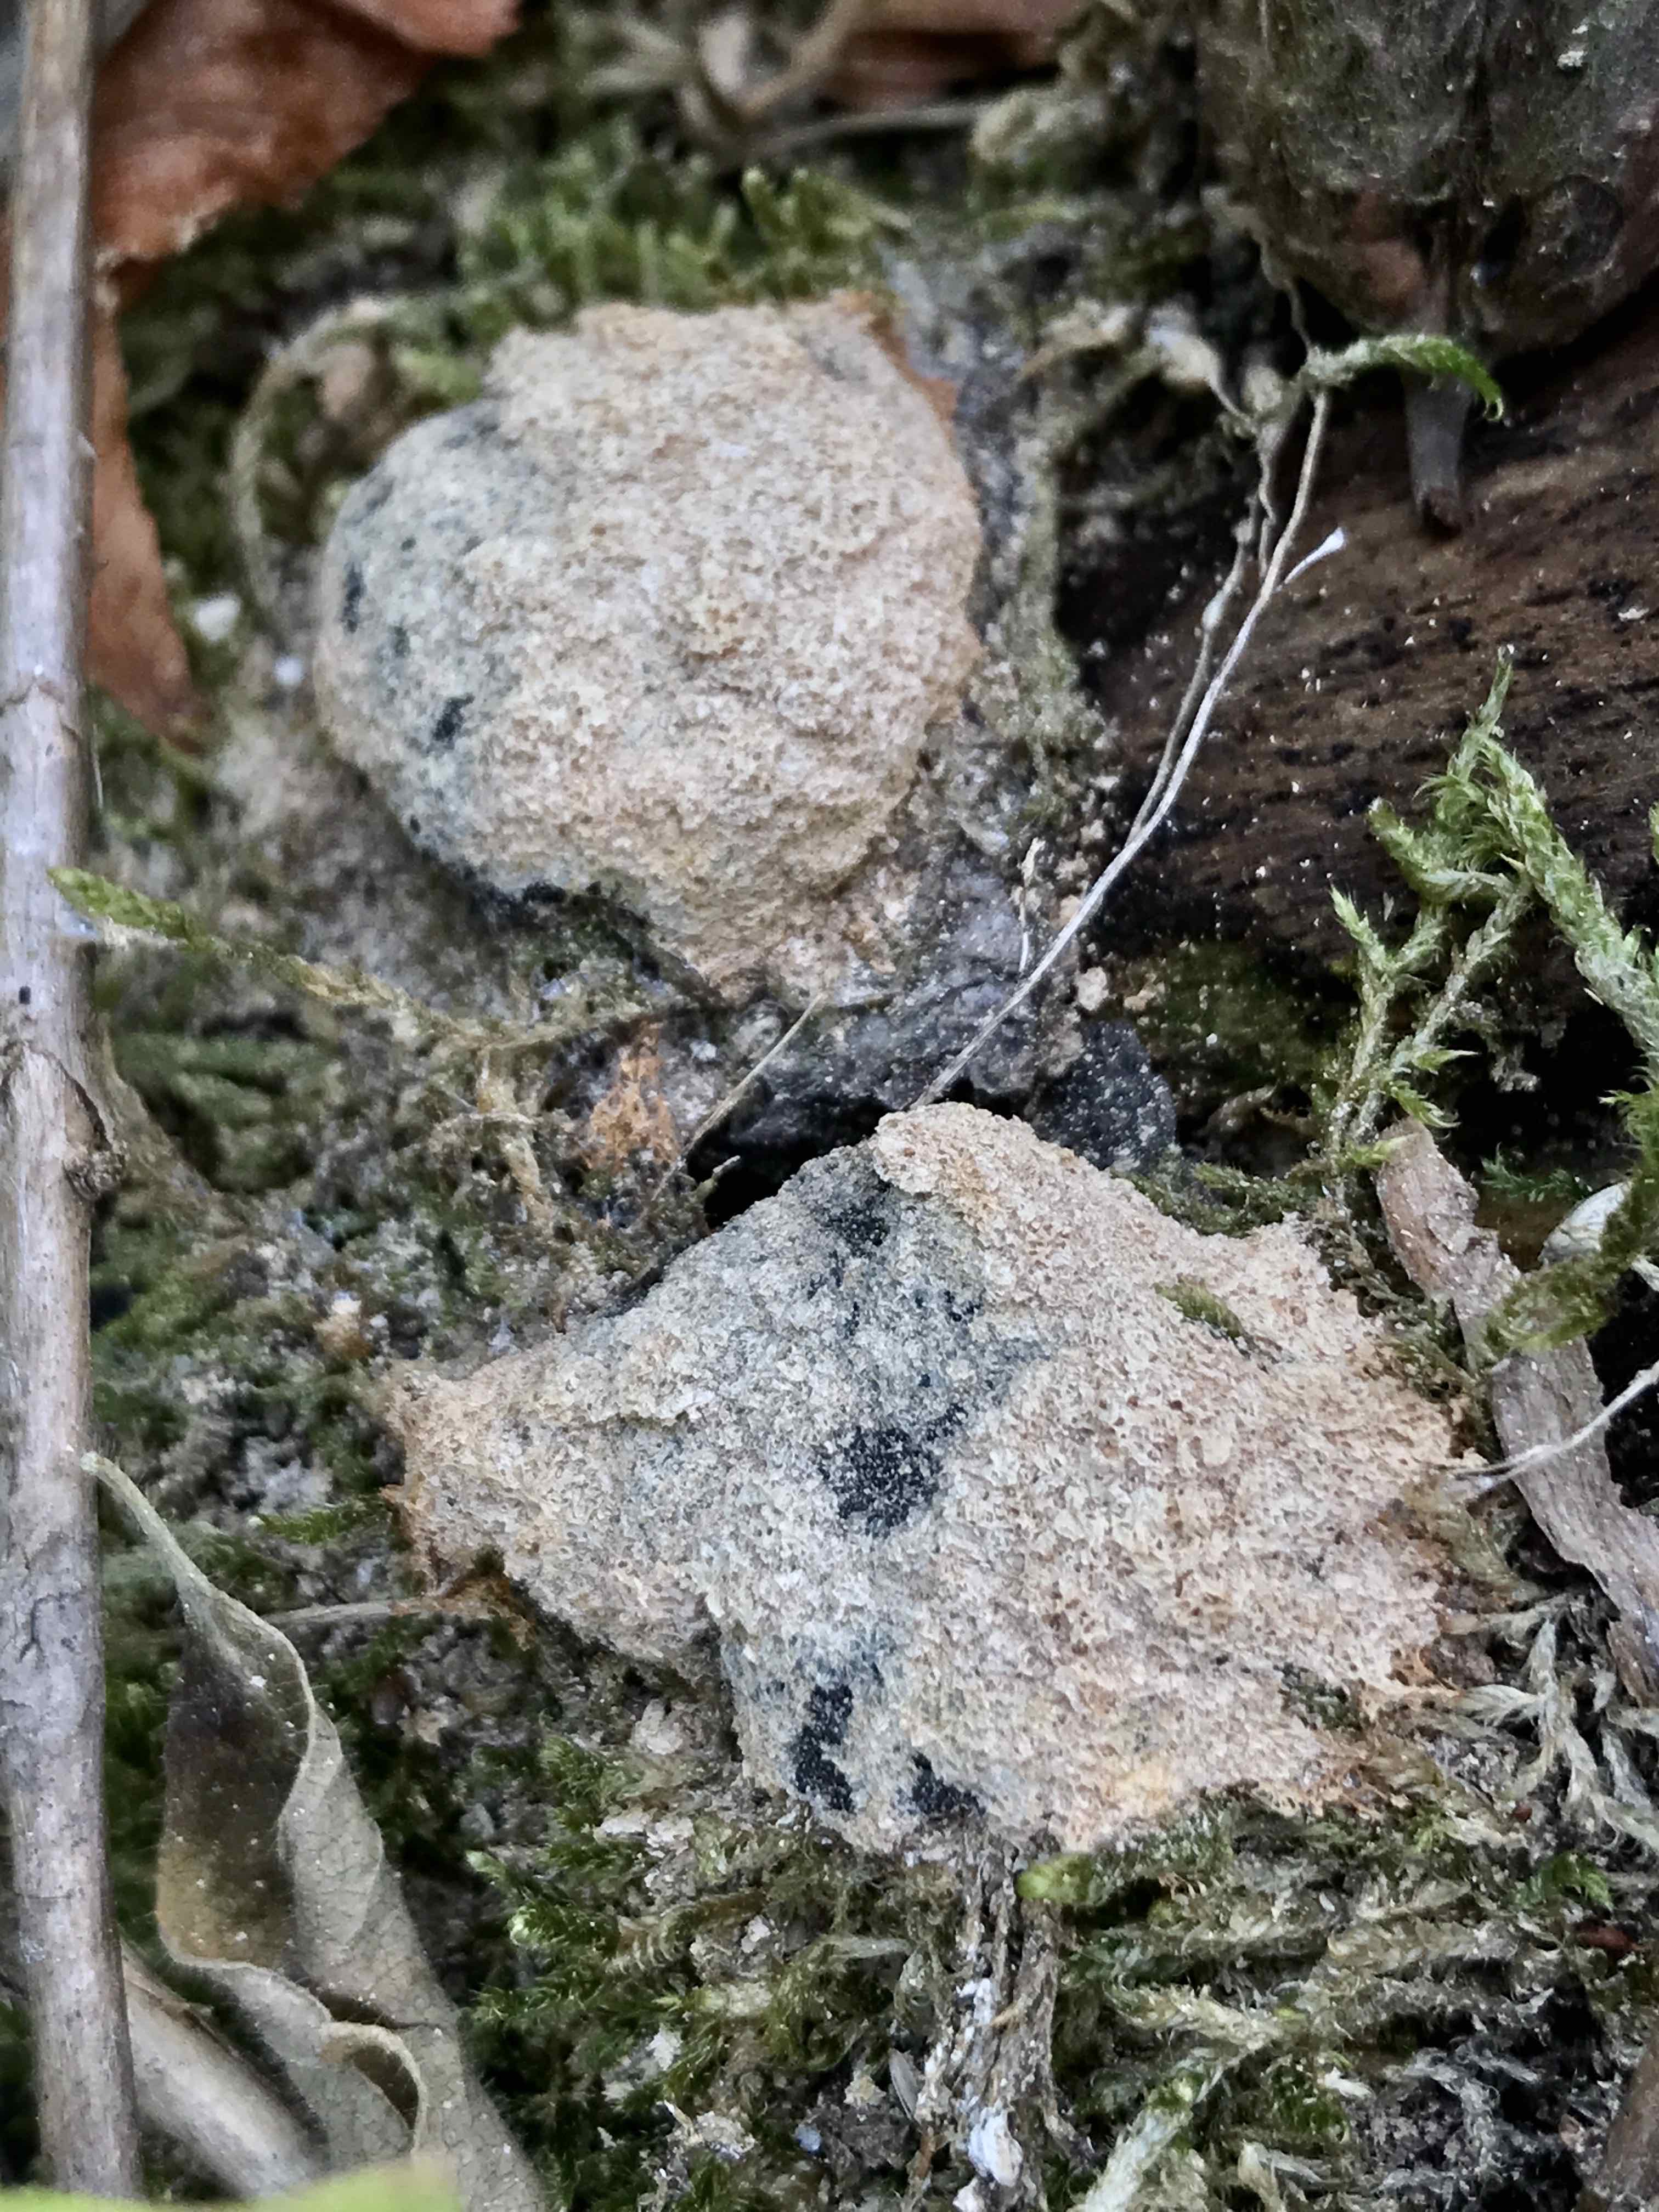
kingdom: Protozoa
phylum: Mycetozoa
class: Myxomycetes
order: Physarales
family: Physaraceae
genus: Fuligo
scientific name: Fuligo septica
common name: gul troldsmør
